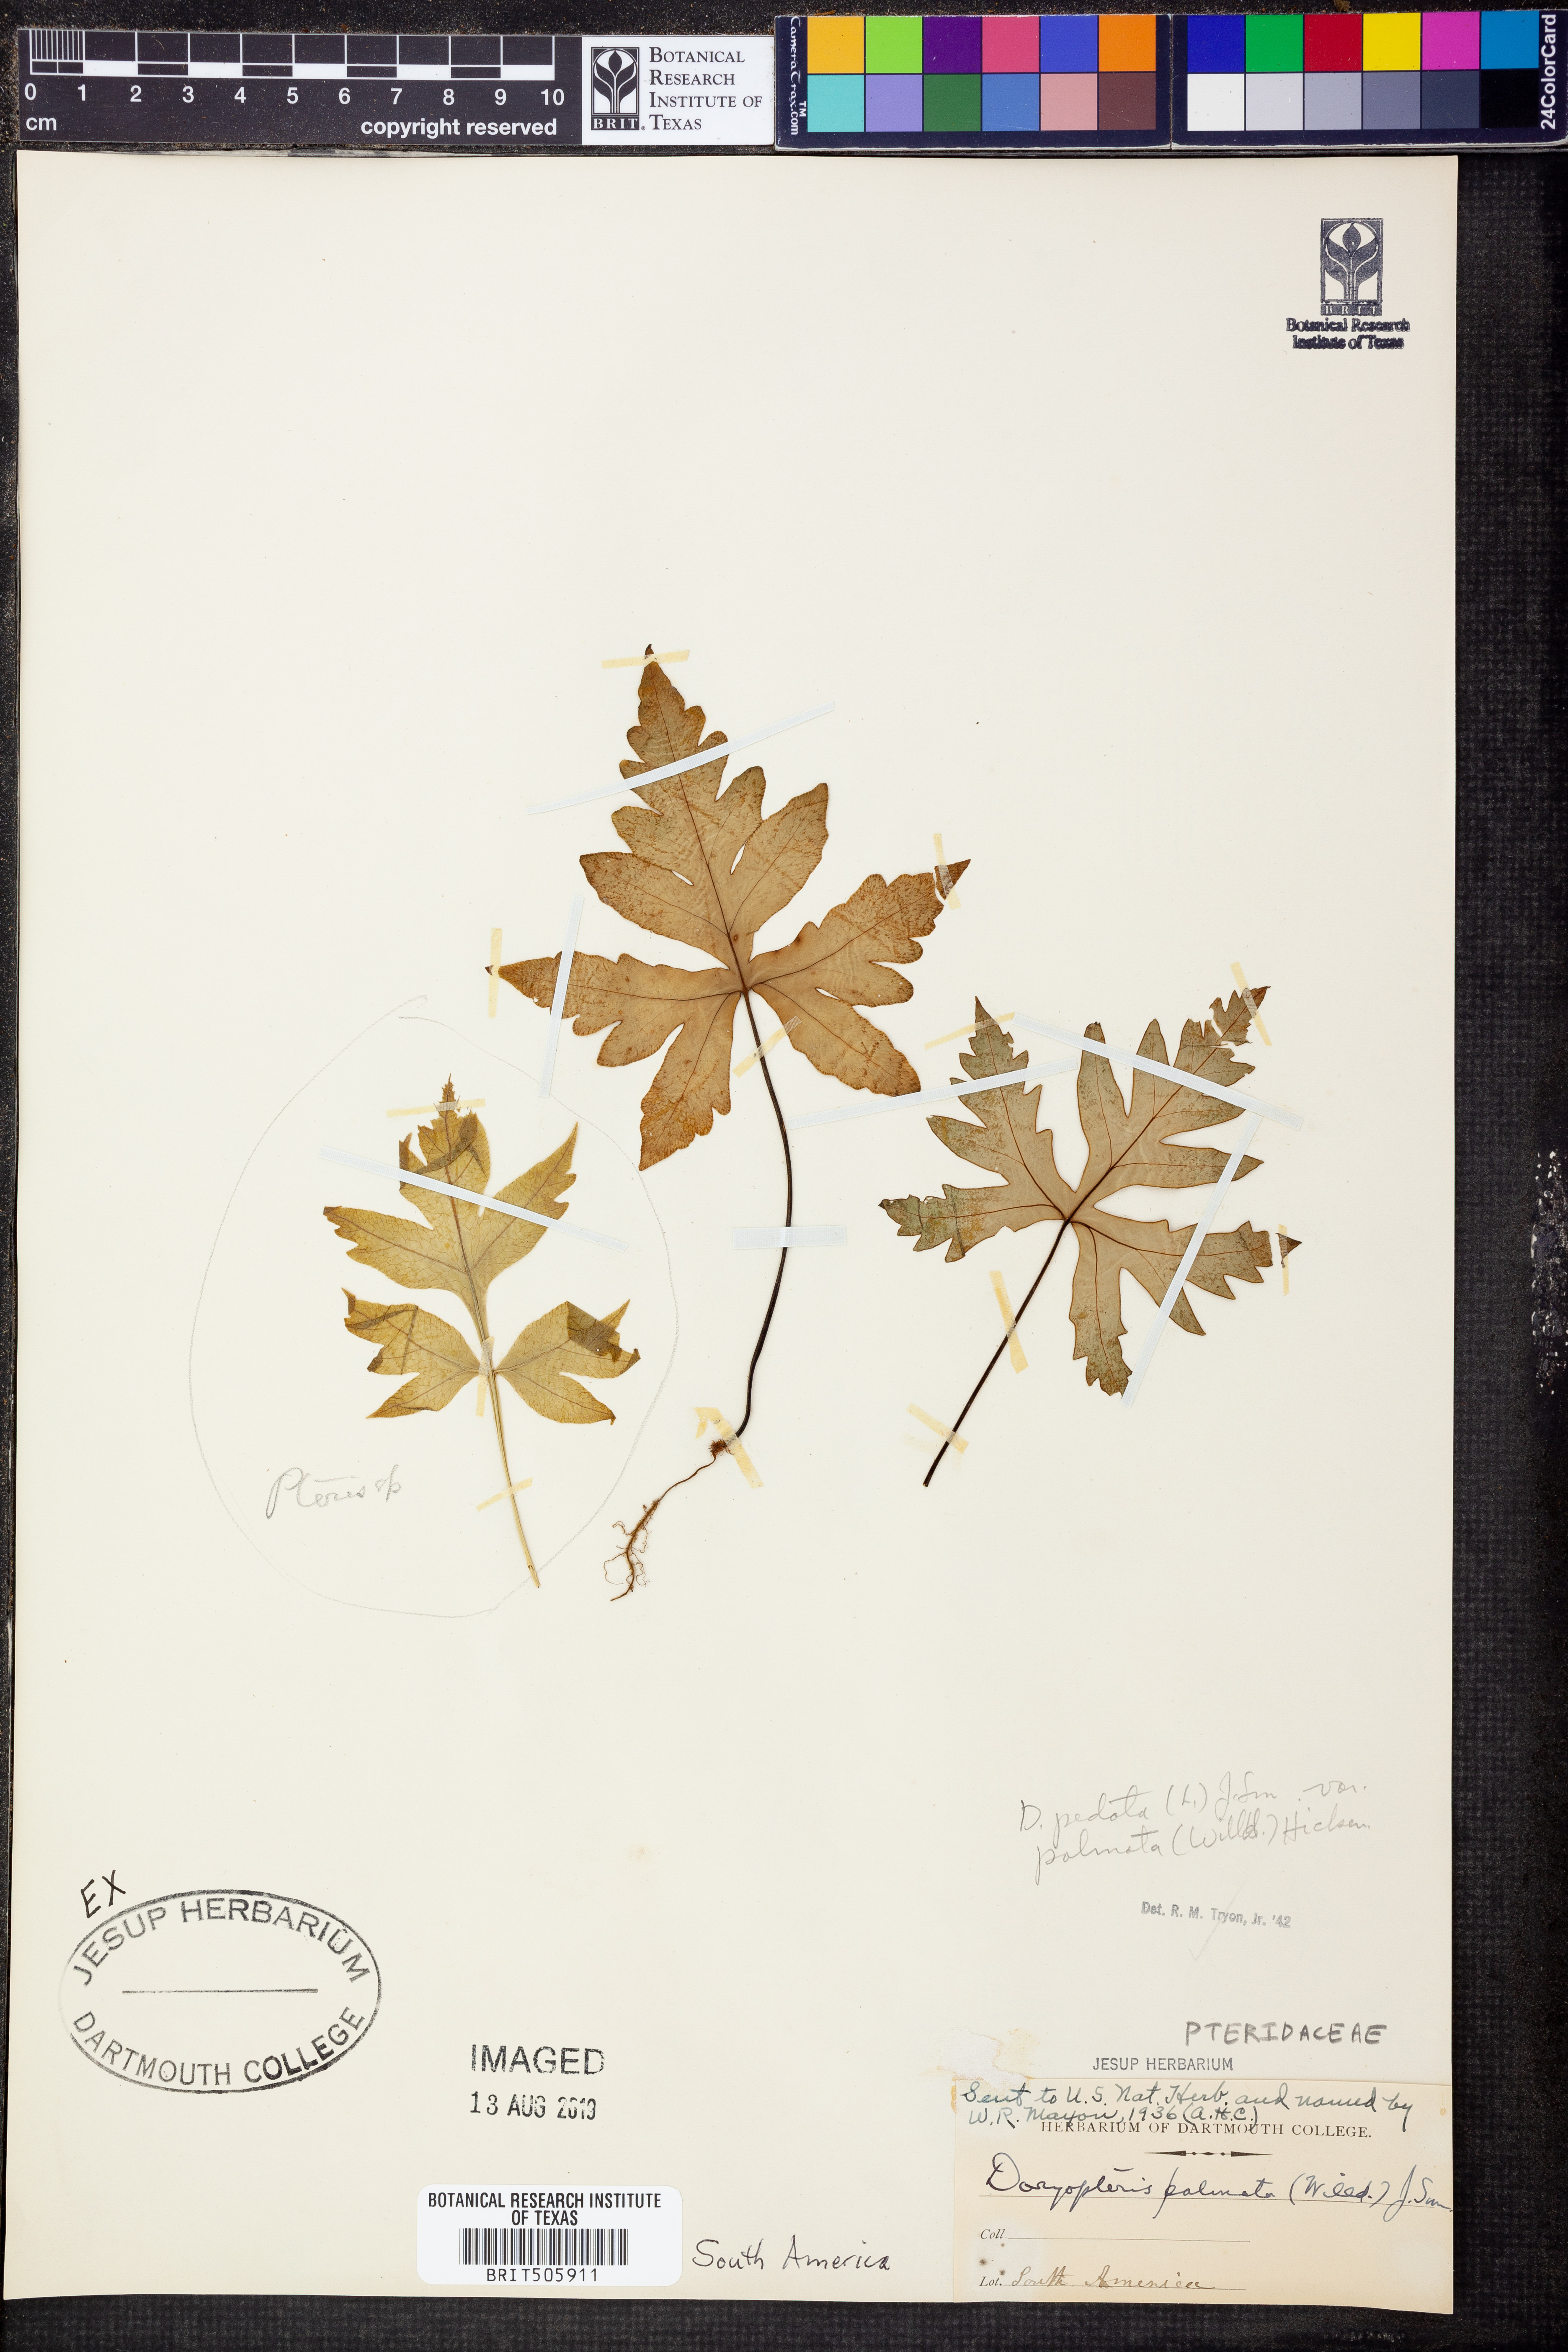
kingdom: Plantae
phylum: Tracheophyta
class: Polypodiopsida
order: Polypodiales
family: Tectariaceae
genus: Tectaria
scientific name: Tectaria pedata
